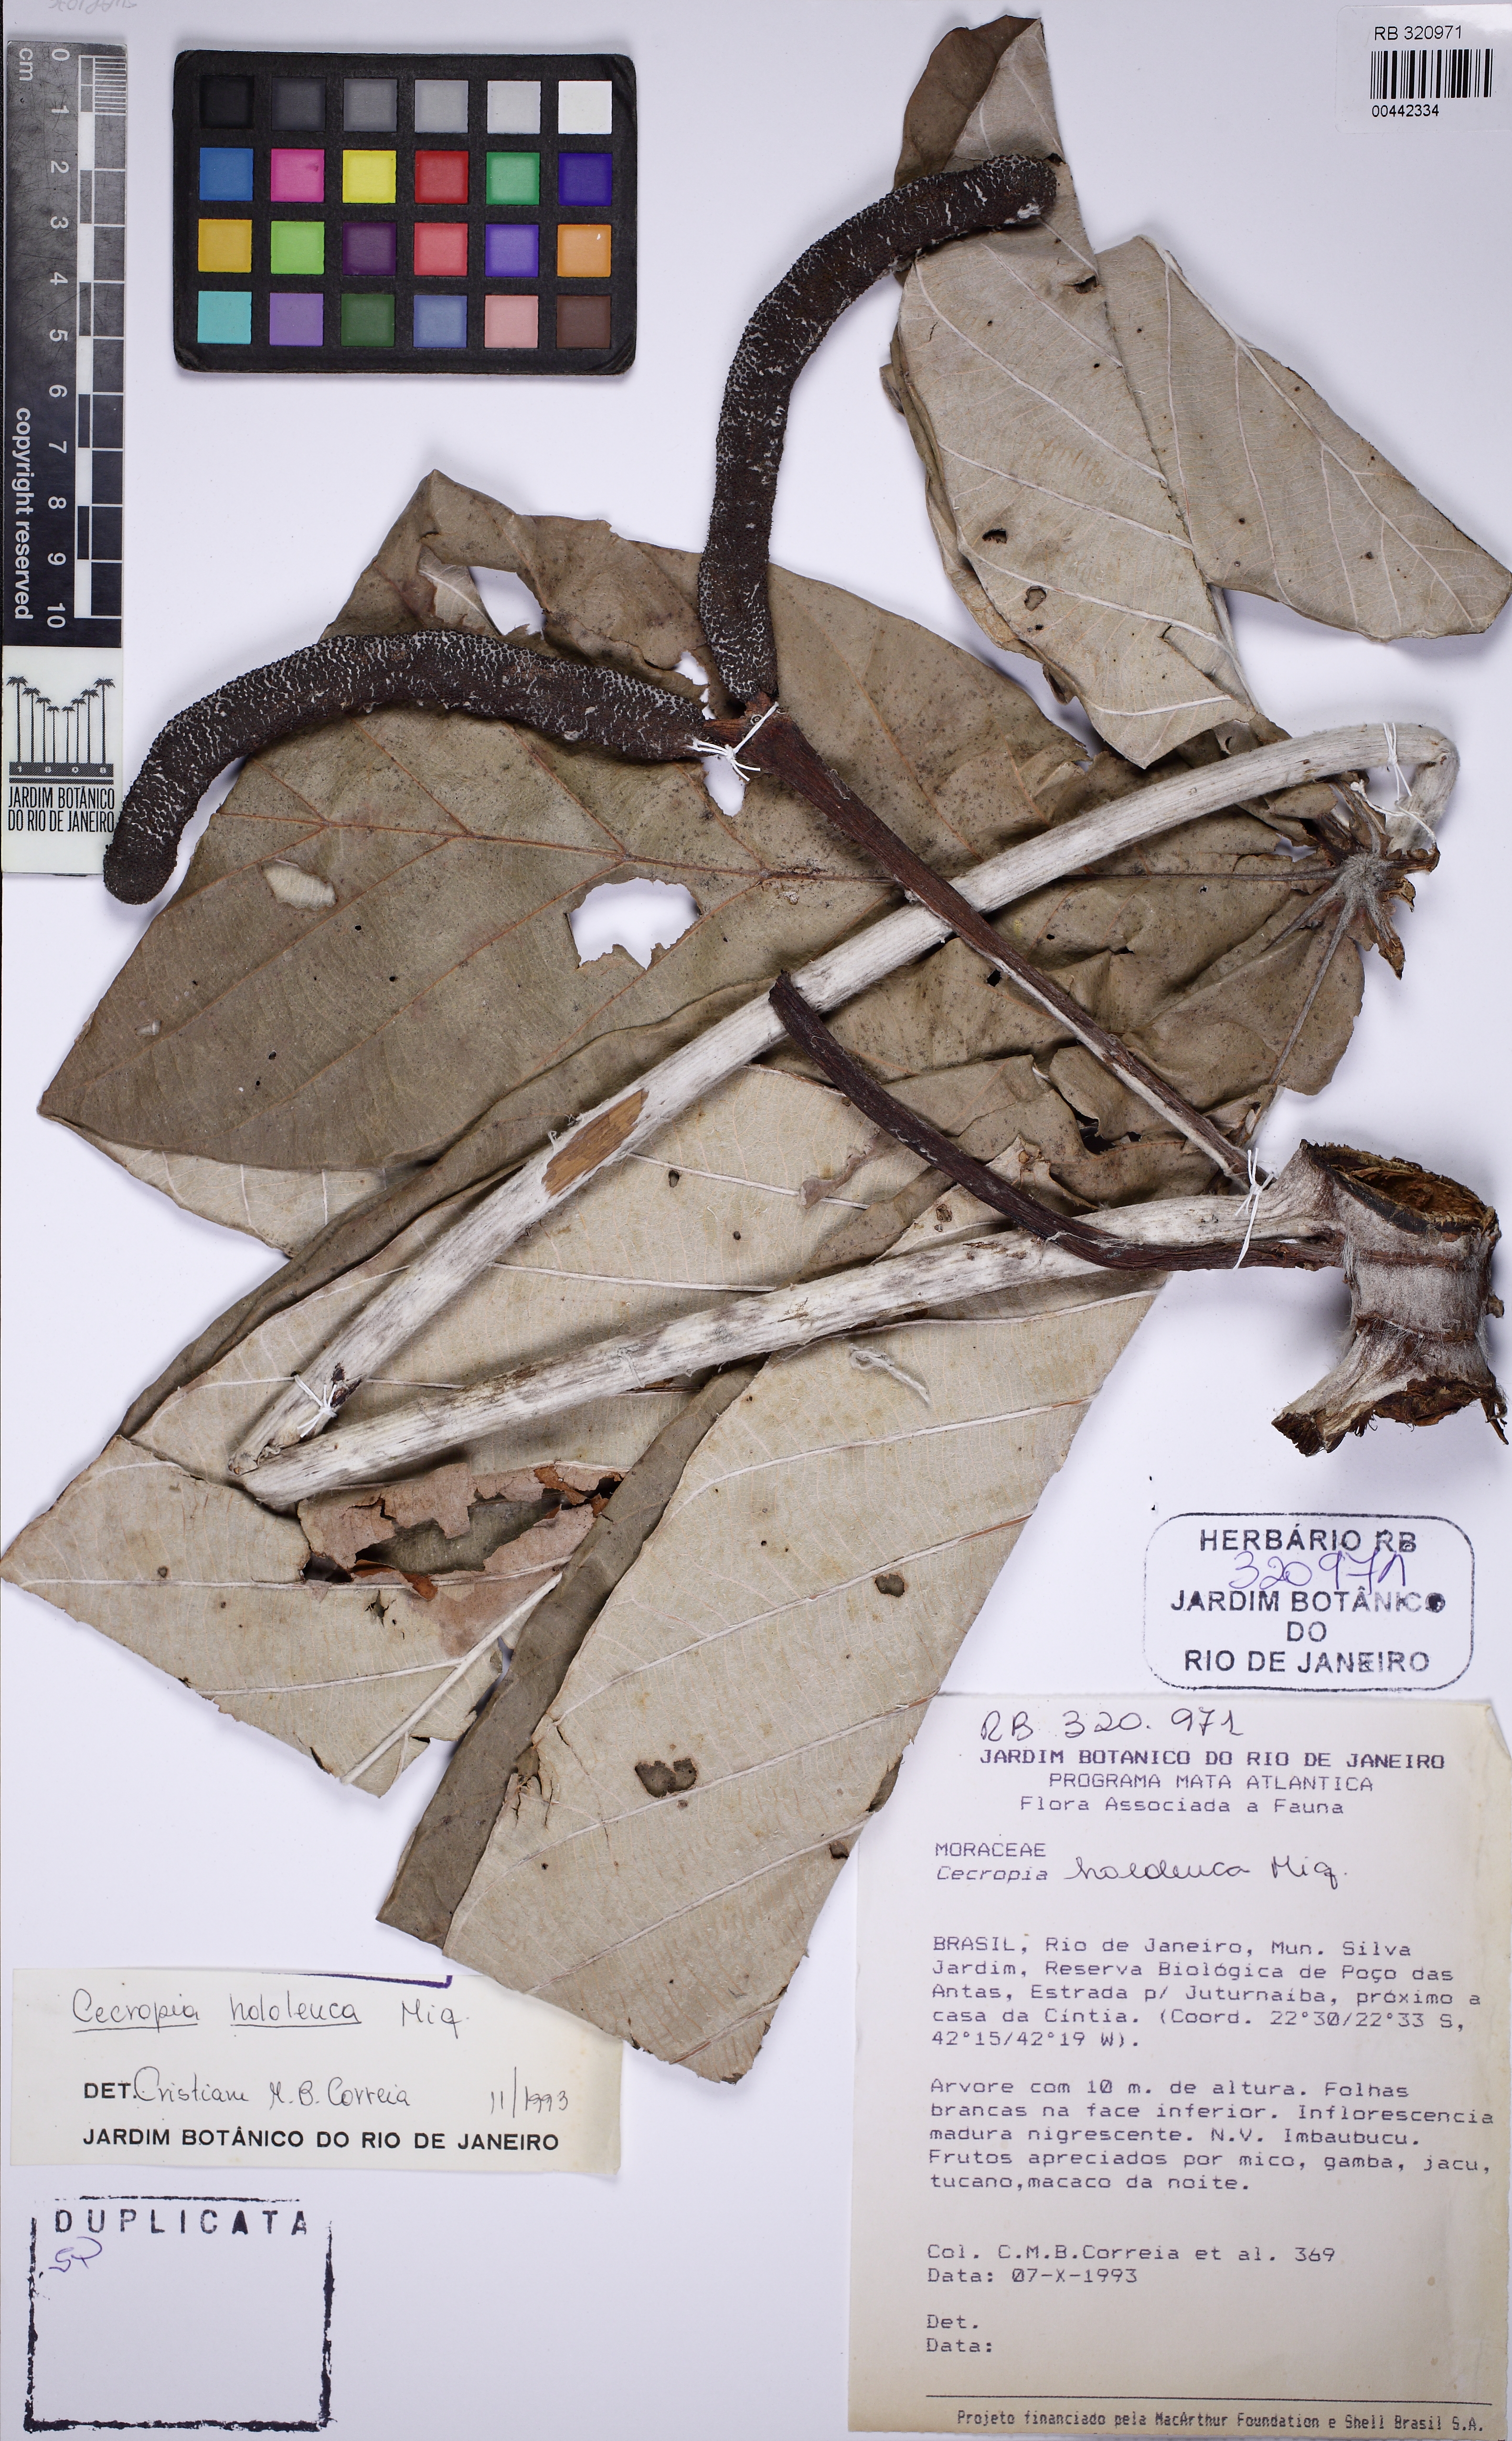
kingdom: Plantae
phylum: Tracheophyta
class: Magnoliopsida
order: Rosales
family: Urticaceae
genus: Cecropia
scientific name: Cecropia hololeuca
